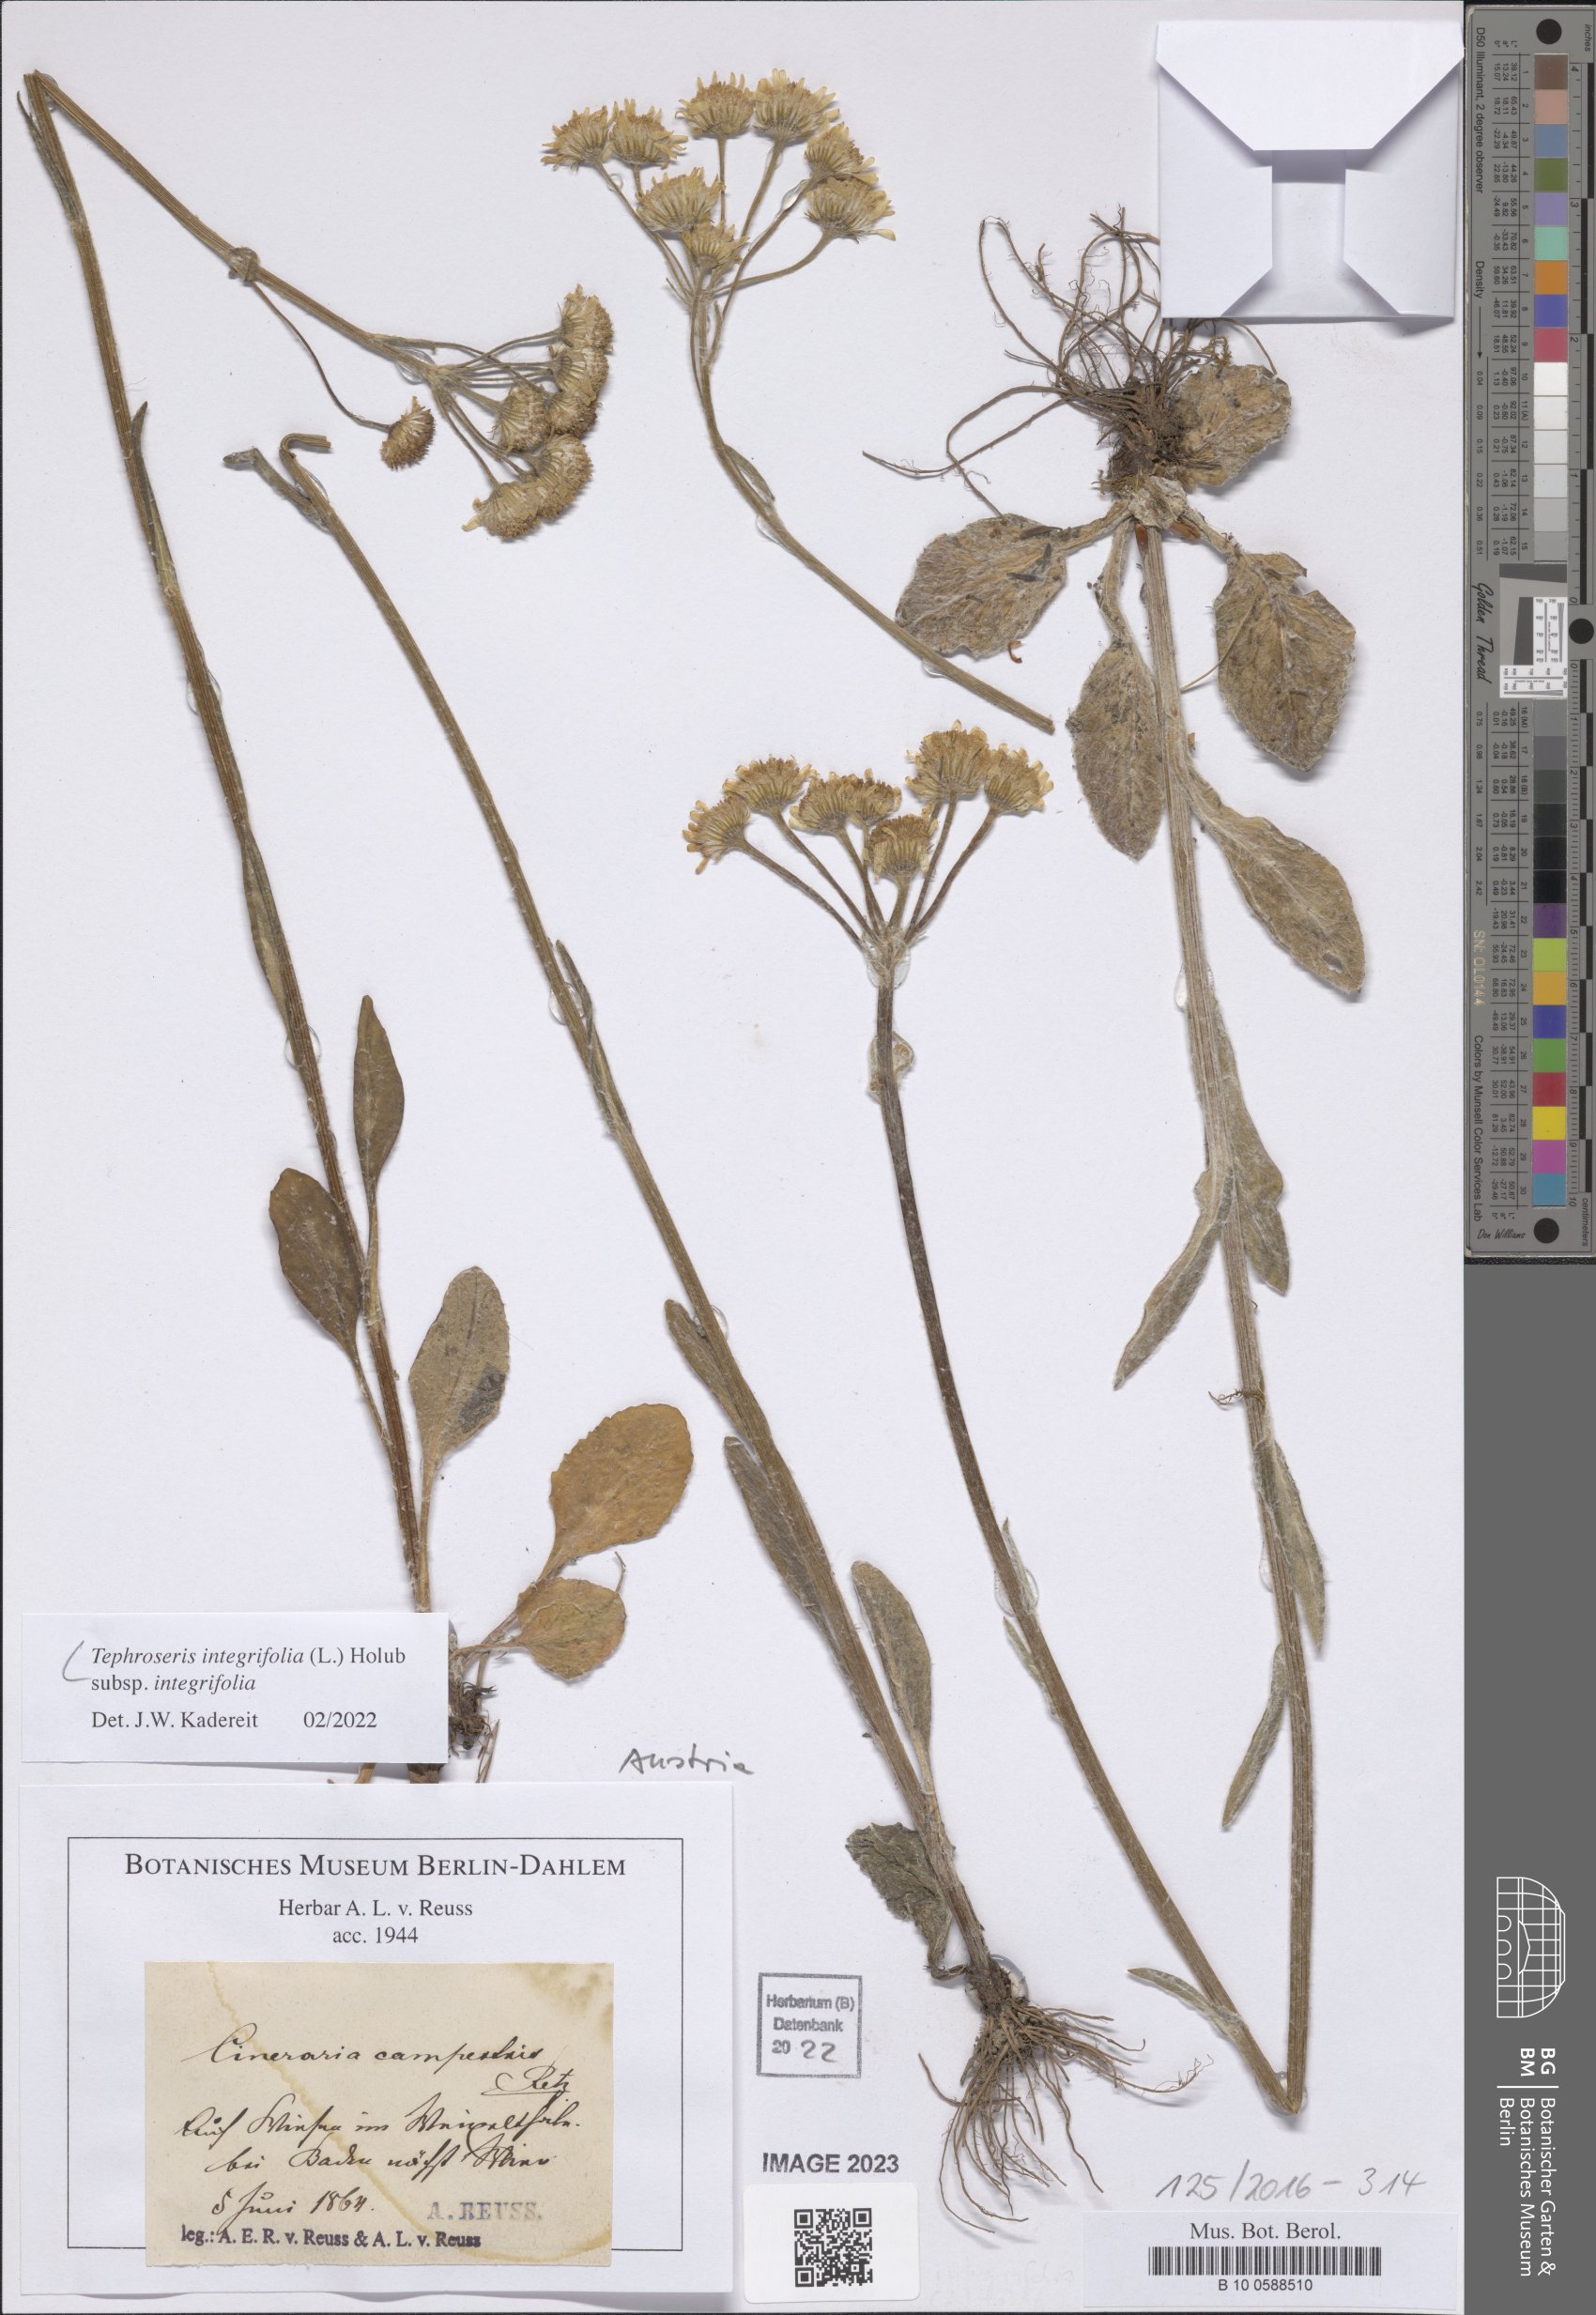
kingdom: Plantae
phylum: Tracheophyta
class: Magnoliopsida
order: Asterales
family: Asteraceae
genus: Tephroseris
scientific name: Tephroseris integrifolia
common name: Field fleawort
